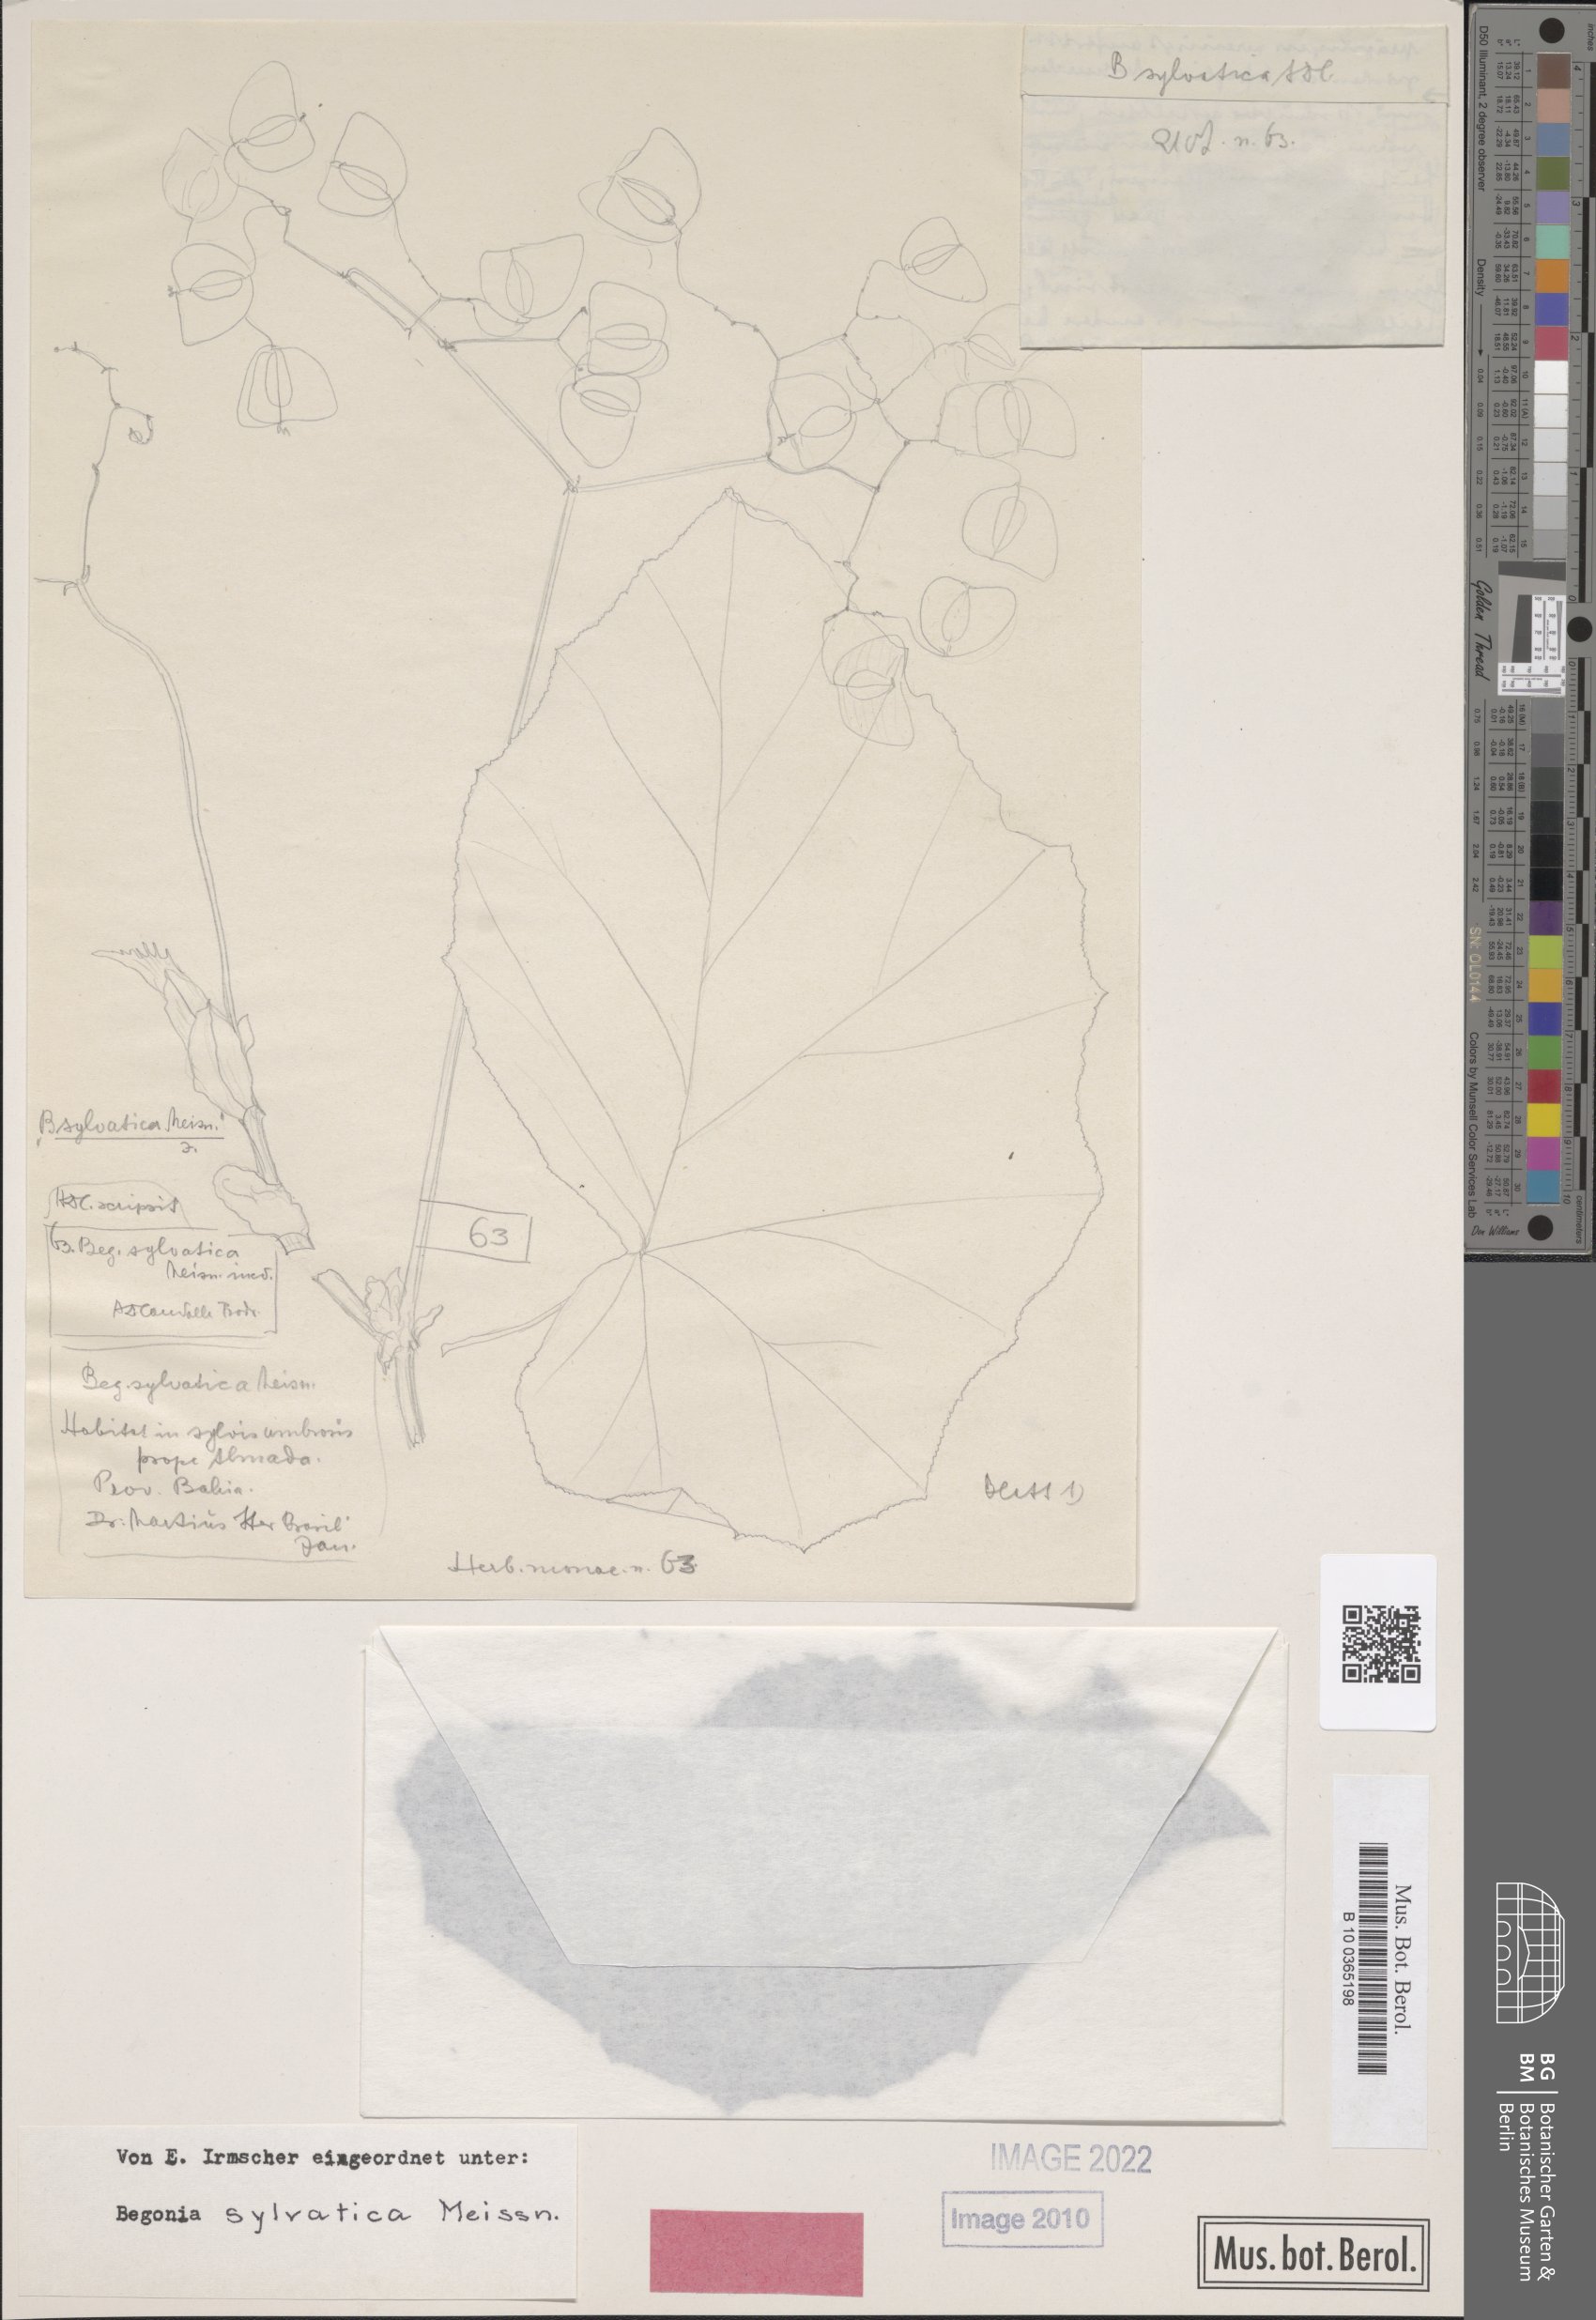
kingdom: Plantae
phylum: Tracheophyta
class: Magnoliopsida
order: Cucurbitales
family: Begoniaceae
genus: Begonia
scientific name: Begonia sylvatica
